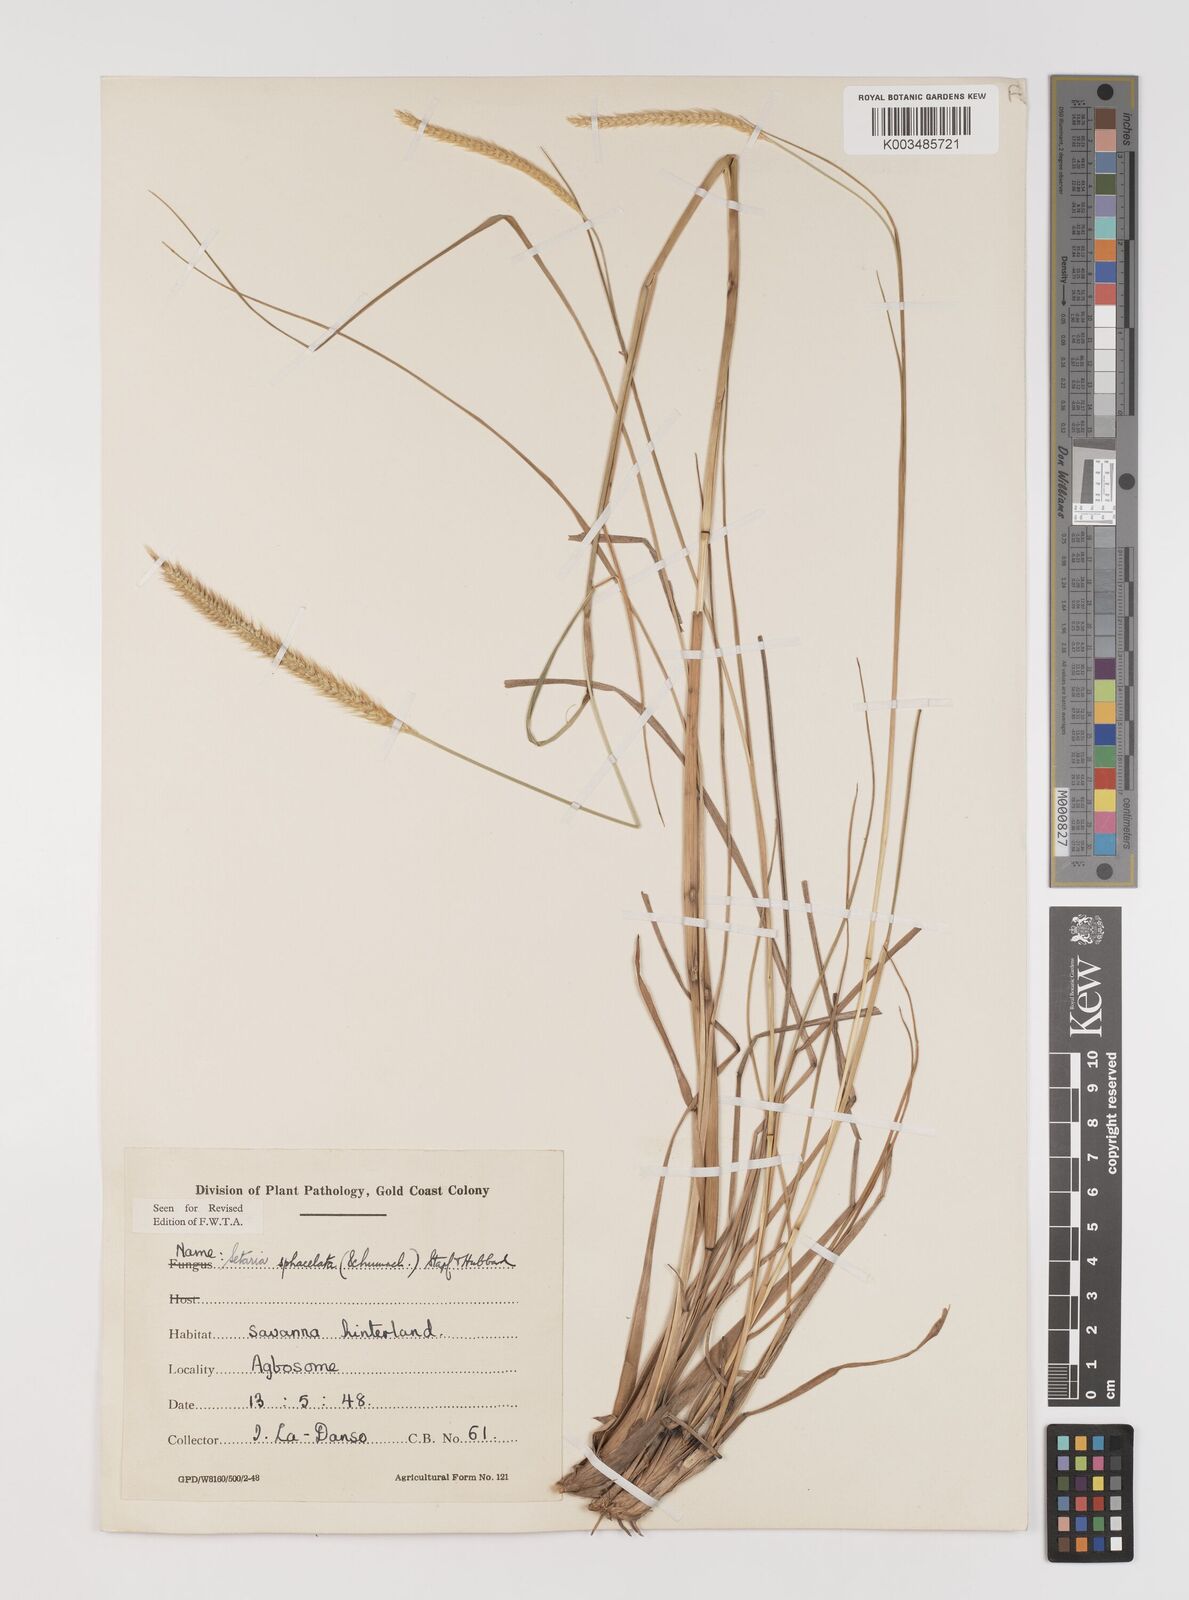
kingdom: Plantae
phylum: Tracheophyta
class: Liliopsida
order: Poales
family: Poaceae
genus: Setaria
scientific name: Setaria sphacelata
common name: African bristlegrass
